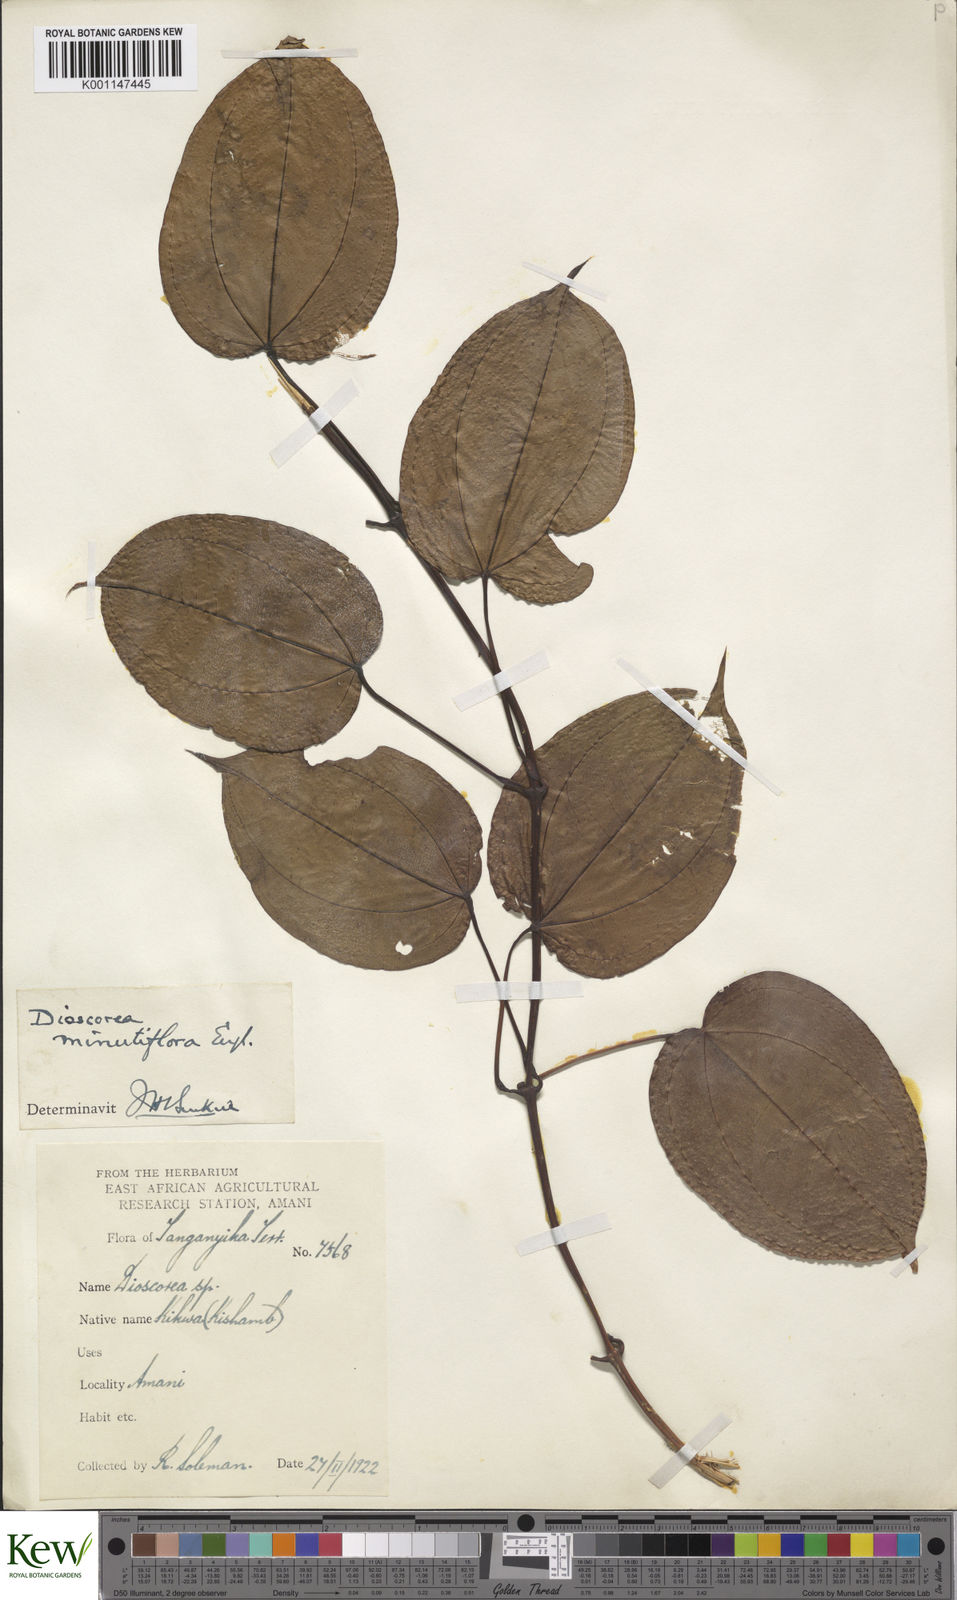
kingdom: Plantae
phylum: Tracheophyta
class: Liliopsida
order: Dioscoreales
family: Dioscoreaceae
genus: Dioscorea
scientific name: Dioscorea minutiflora
